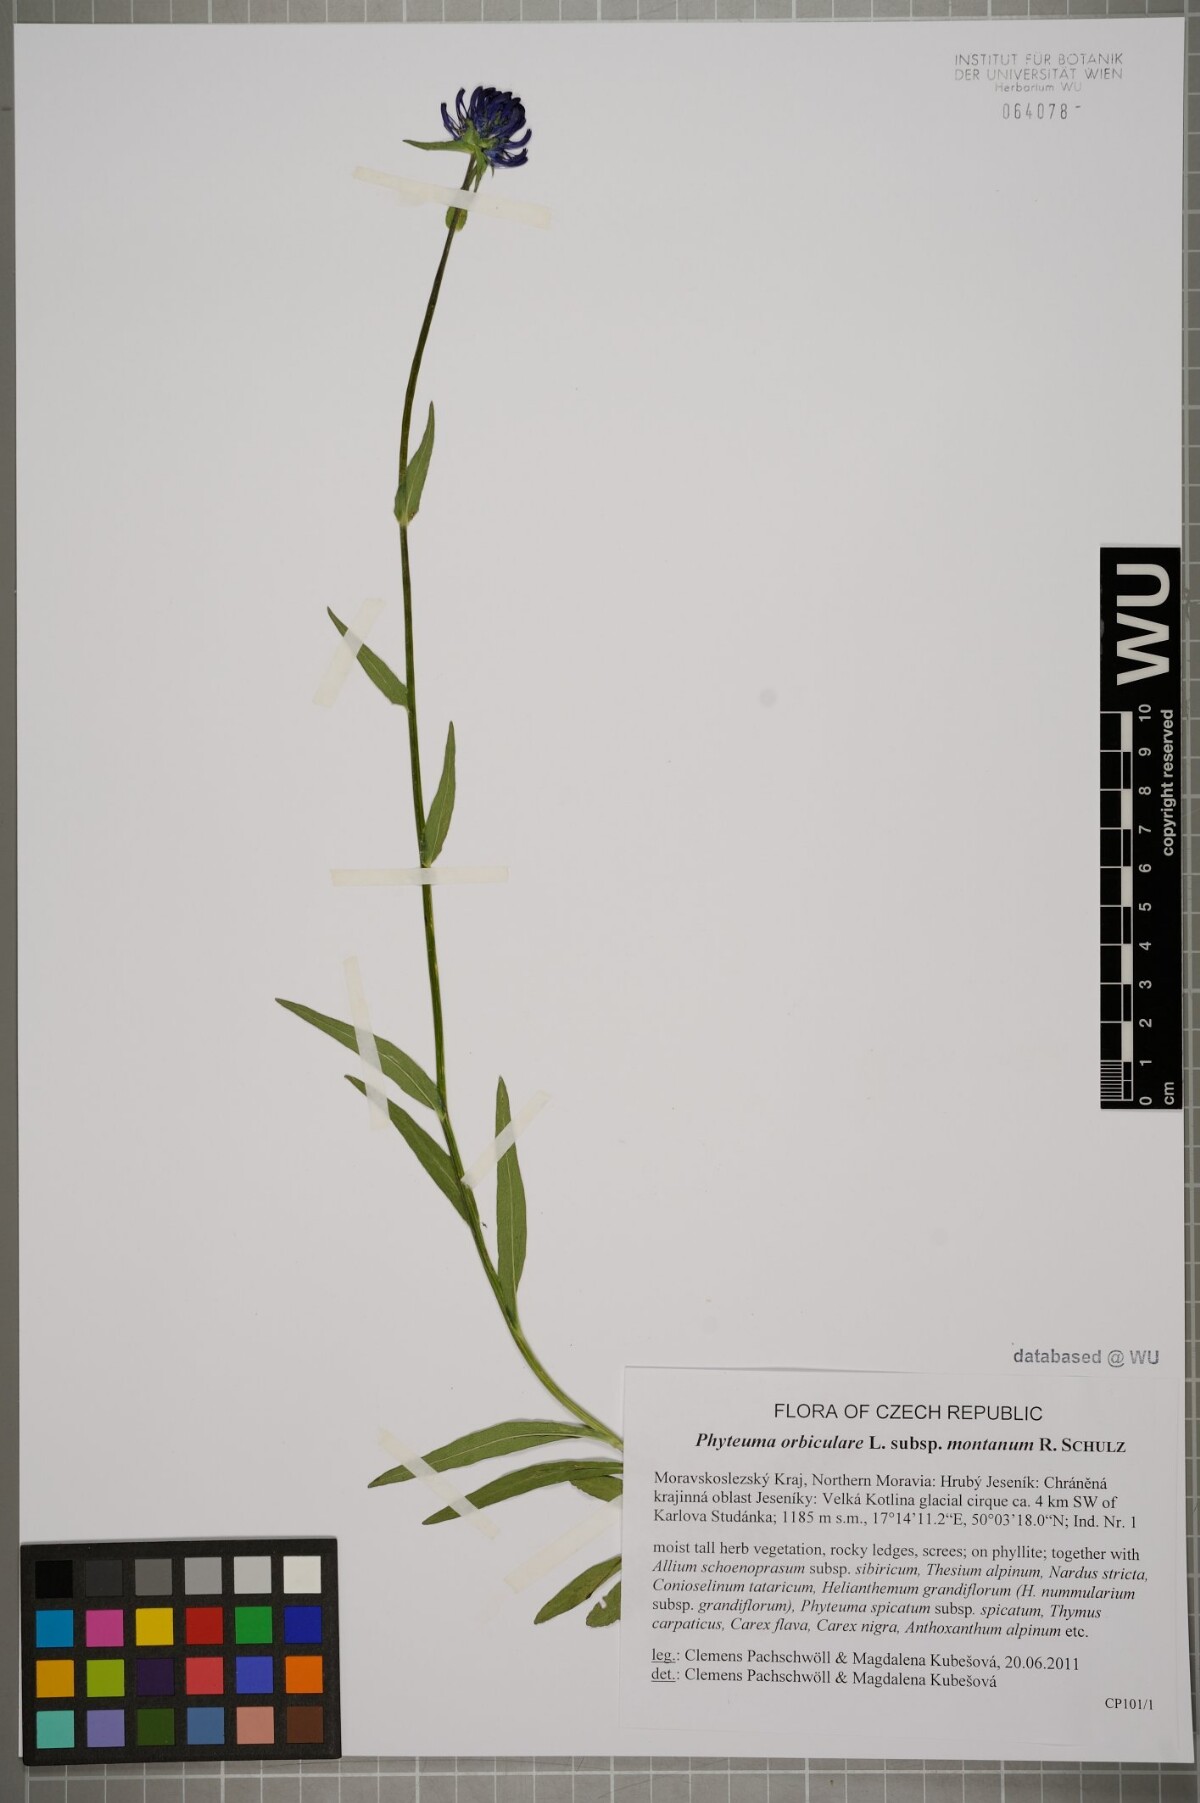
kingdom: Plantae
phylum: Tracheophyta
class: Magnoliopsida
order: Asterales
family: Campanulaceae
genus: Phyteuma
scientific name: Phyteuma orbiculare
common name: Round-headed rampion
